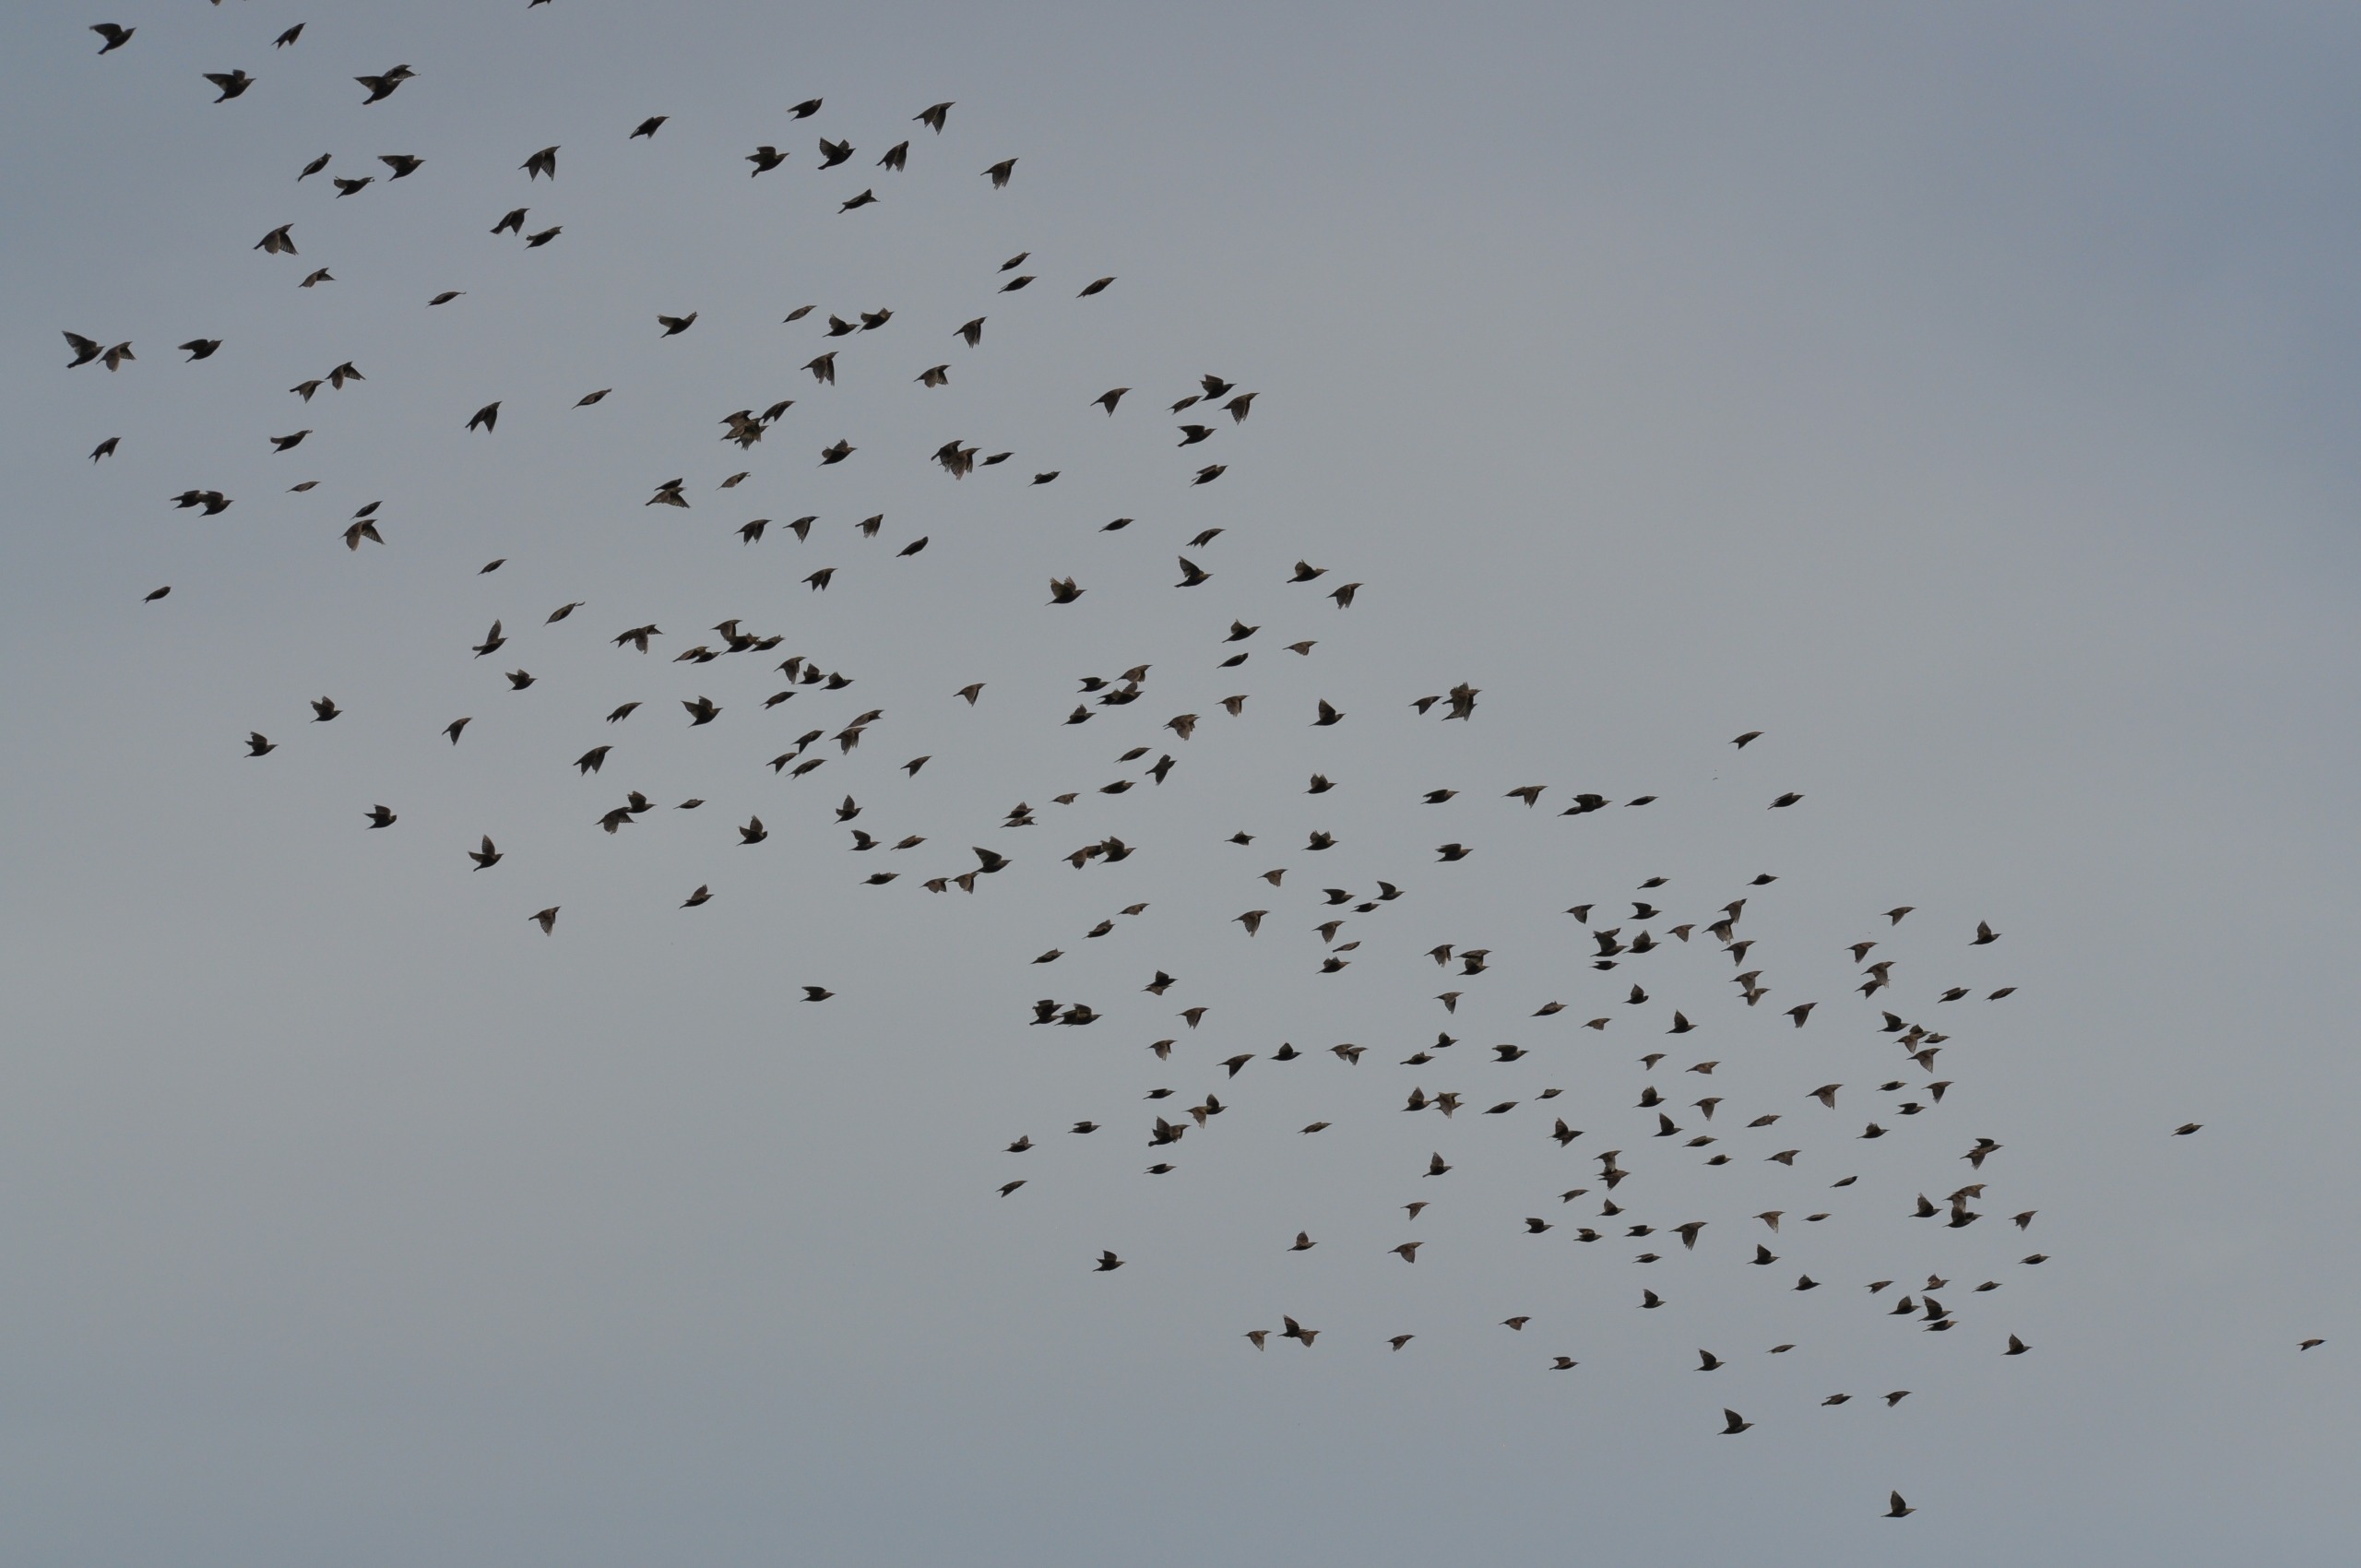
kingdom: Animalia
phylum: Chordata
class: Aves
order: Passeriformes
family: Sturnidae
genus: Sturnus
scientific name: Sturnus vulgaris
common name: Stær
